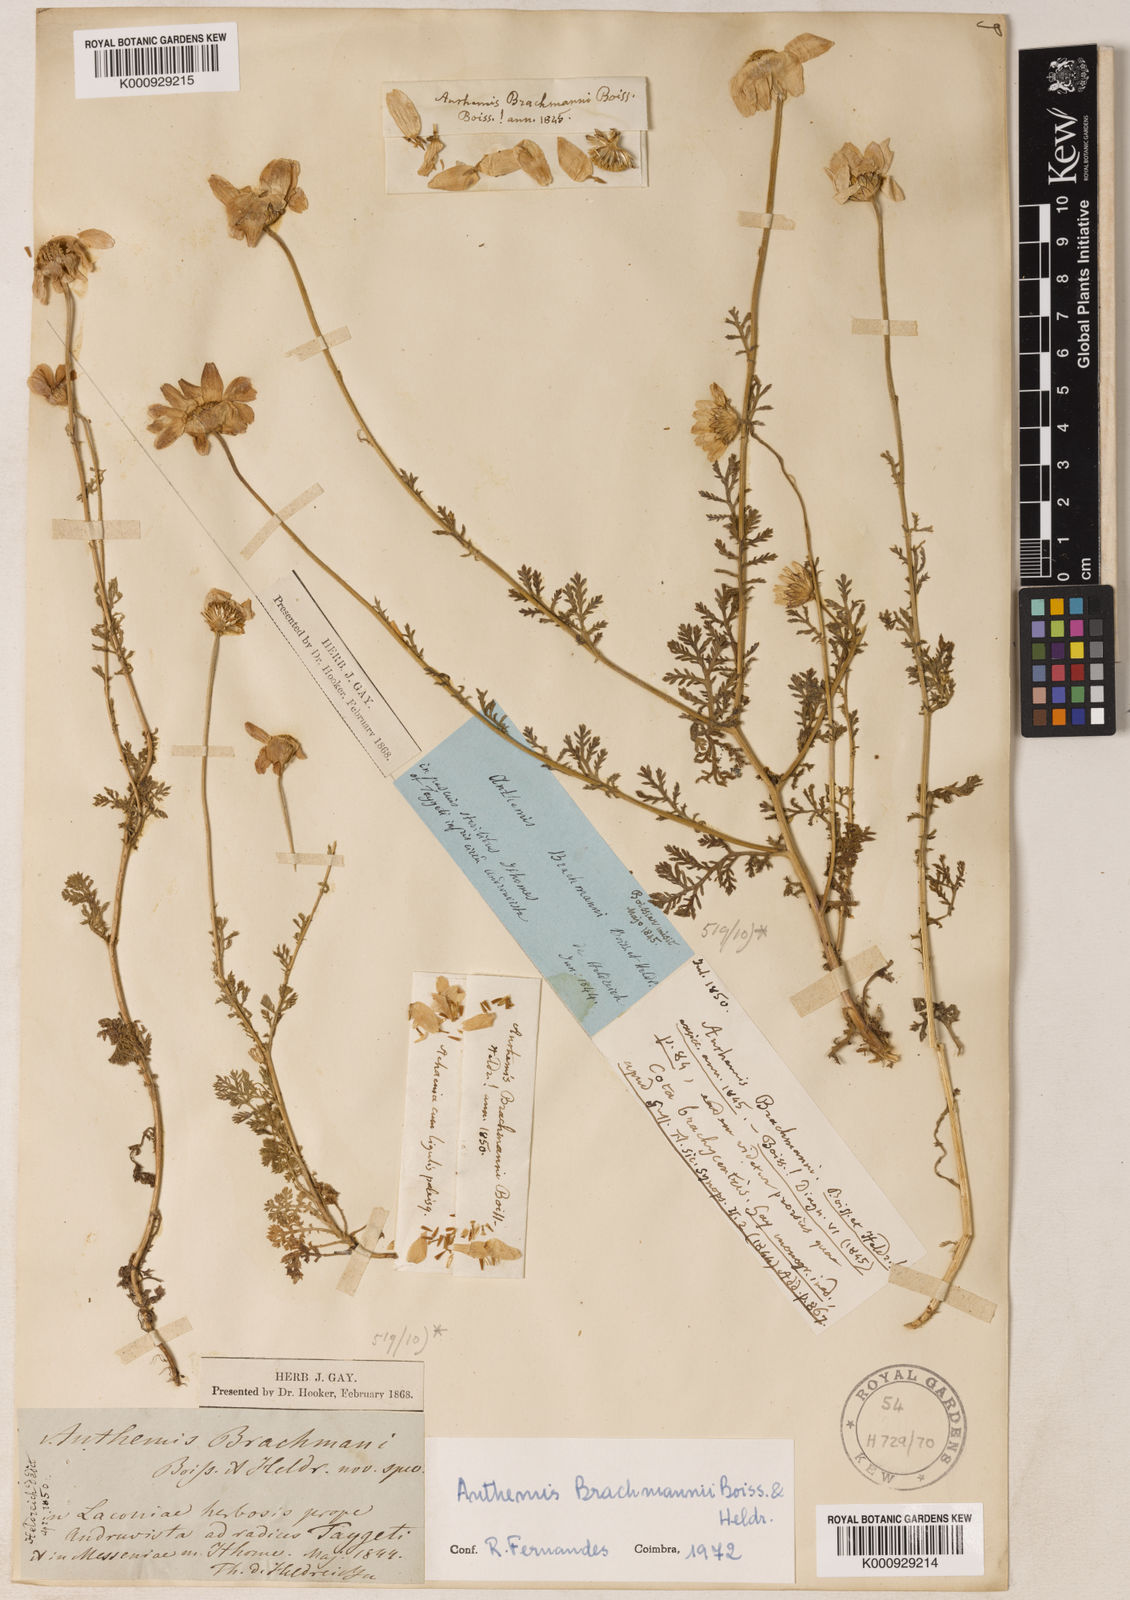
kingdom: Plantae
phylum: Tracheophyta
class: Magnoliopsida
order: Asterales
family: Asteraceae
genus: Cota
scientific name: Cota brachmanni
